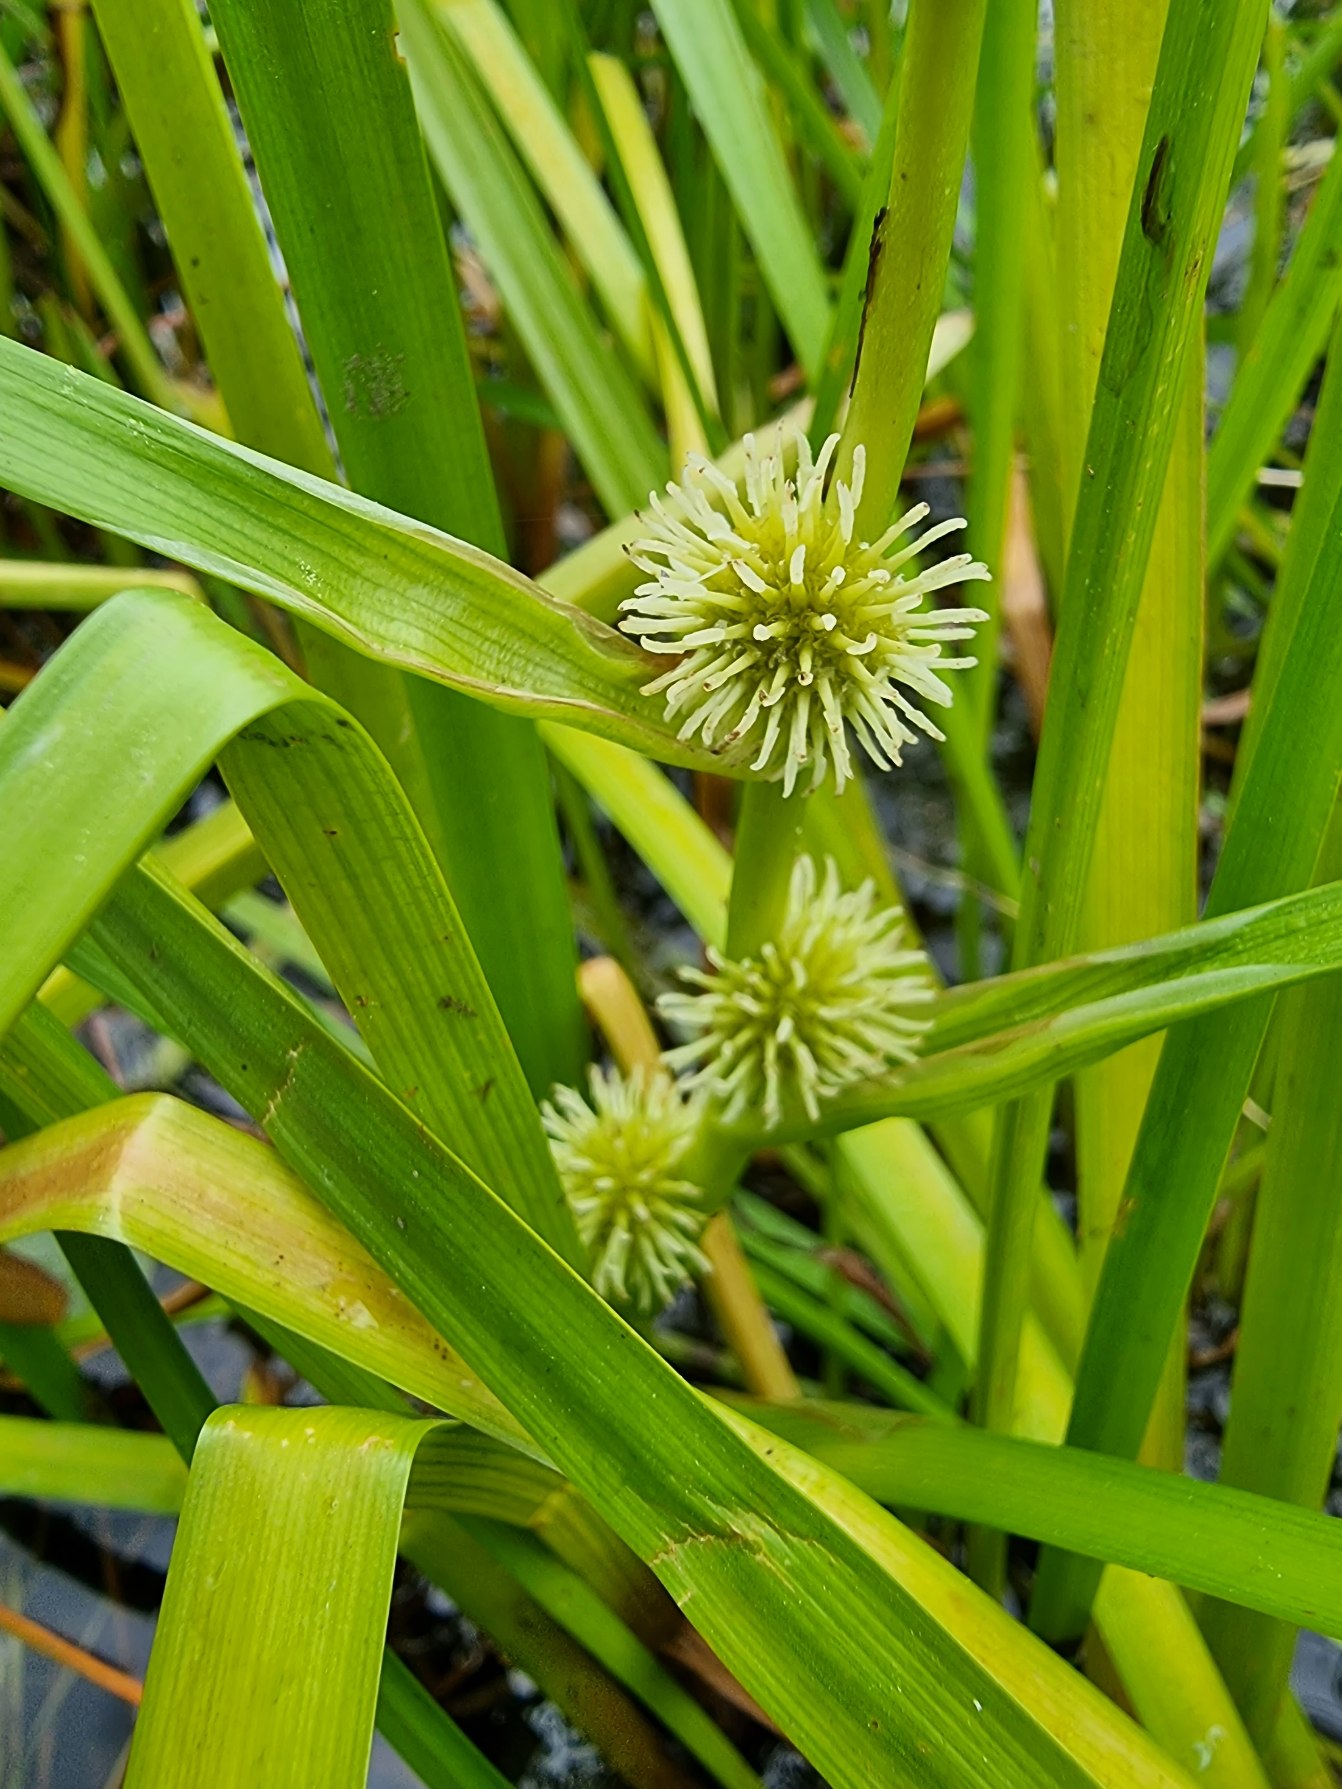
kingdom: Plantae
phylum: Tracheophyta
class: Liliopsida
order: Poales
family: Typhaceae
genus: Sparganium
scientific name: Sparganium emersum
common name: Enkelt pindsvineknop
